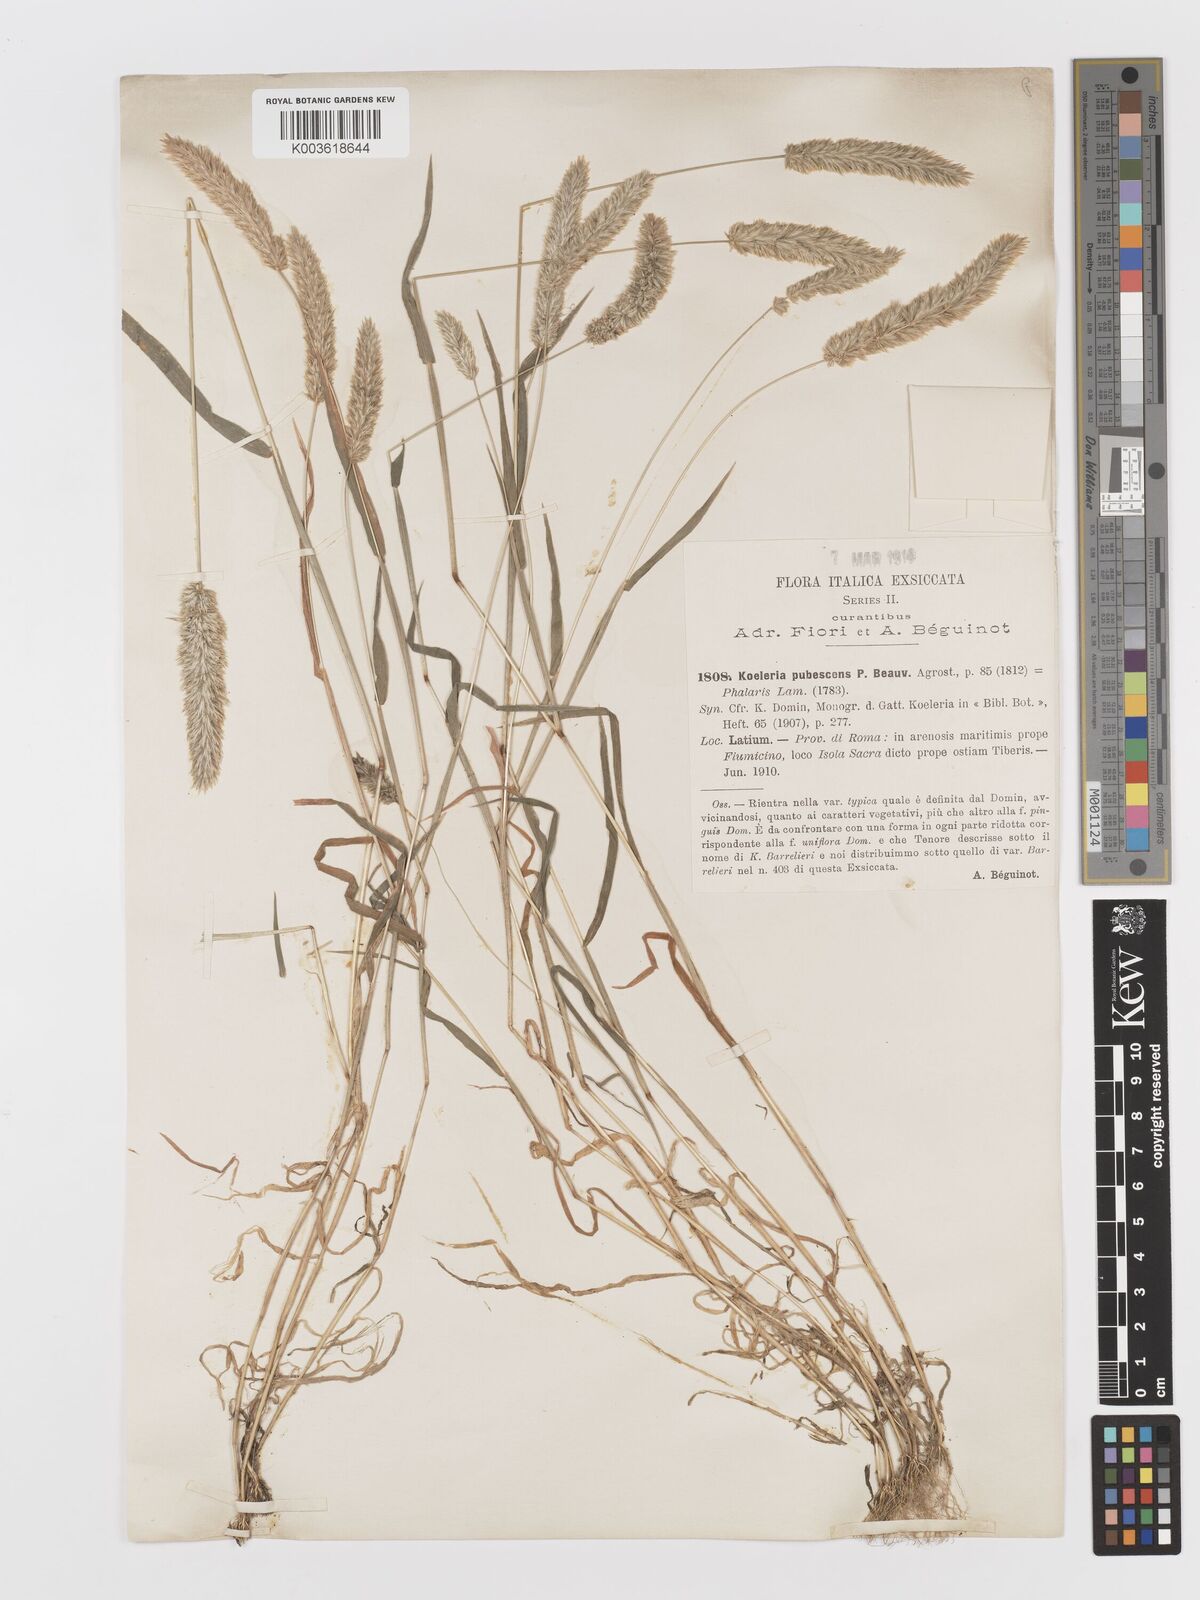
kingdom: Plantae
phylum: Tracheophyta
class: Liliopsida
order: Poales
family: Poaceae
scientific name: Poaceae
